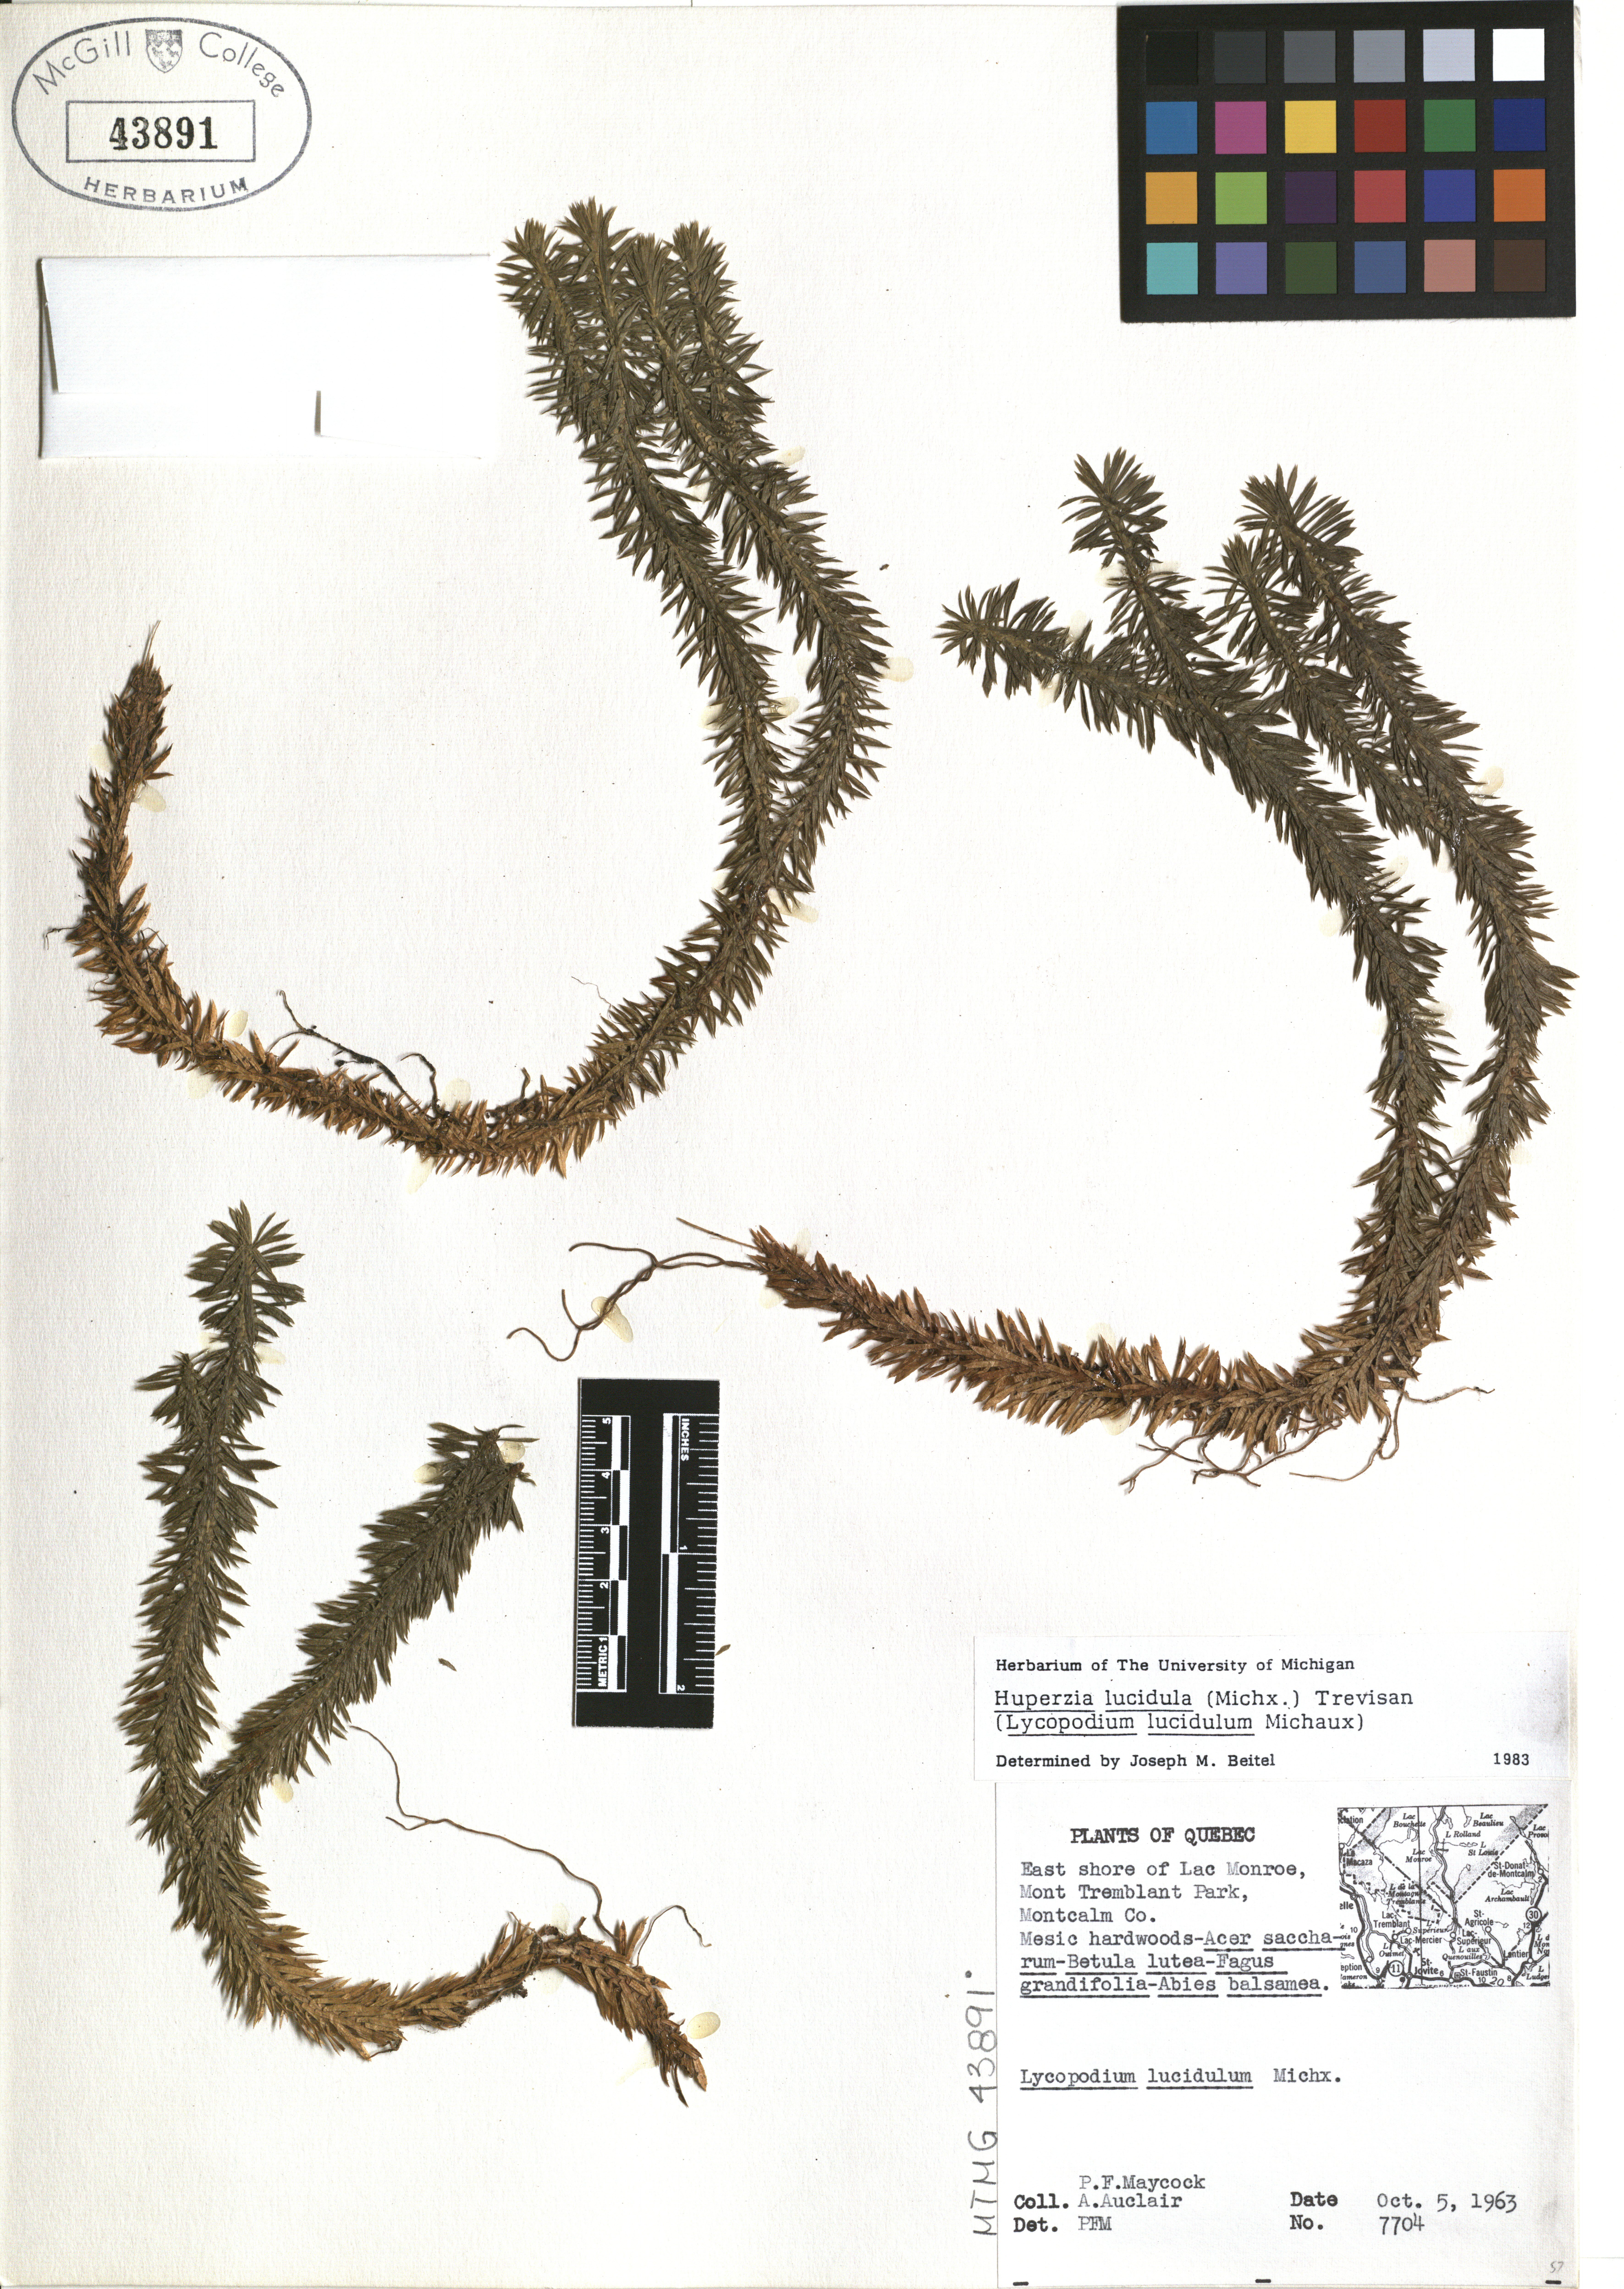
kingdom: Plantae
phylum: Tracheophyta
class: Lycopodiopsida
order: Lycopodiales
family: Lycopodiaceae
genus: Huperzia
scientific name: Huperzia lucidula
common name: Shining clubmoss
